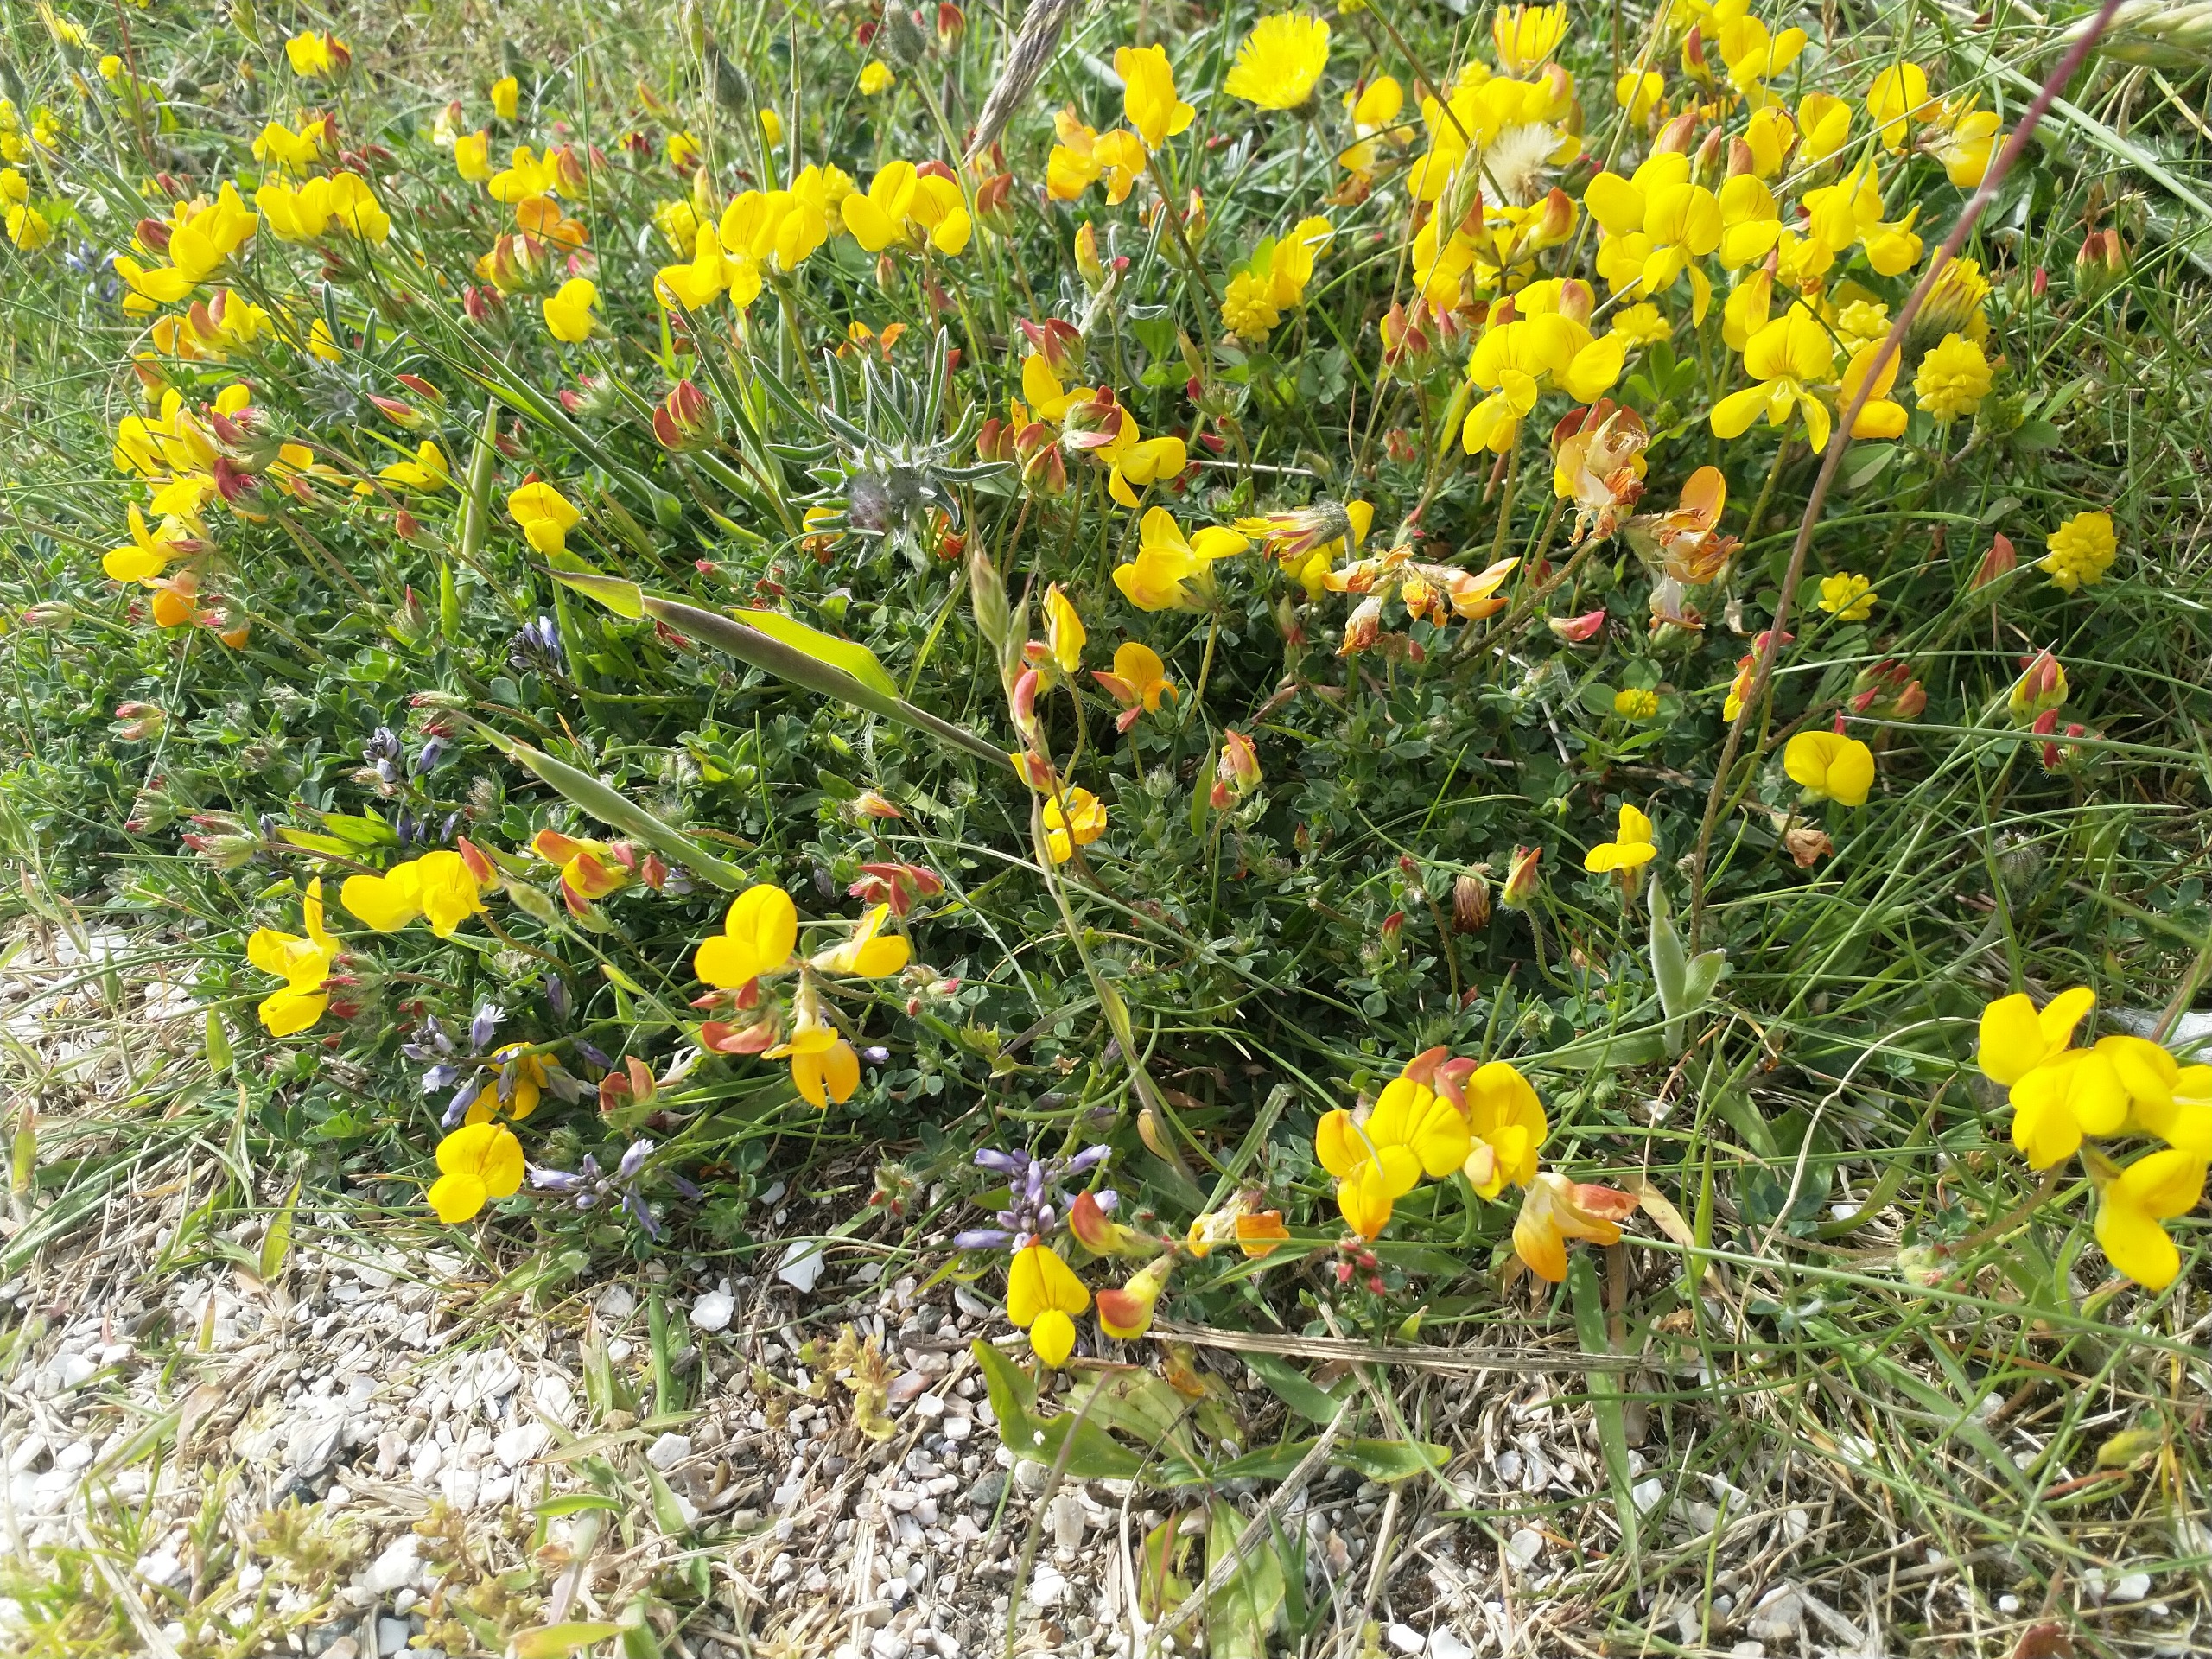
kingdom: Plantae
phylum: Tracheophyta
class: Magnoliopsida
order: Fabales
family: Fabaceae
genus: Lotus
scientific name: Lotus corniculatus
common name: Almindelig kællingetand
